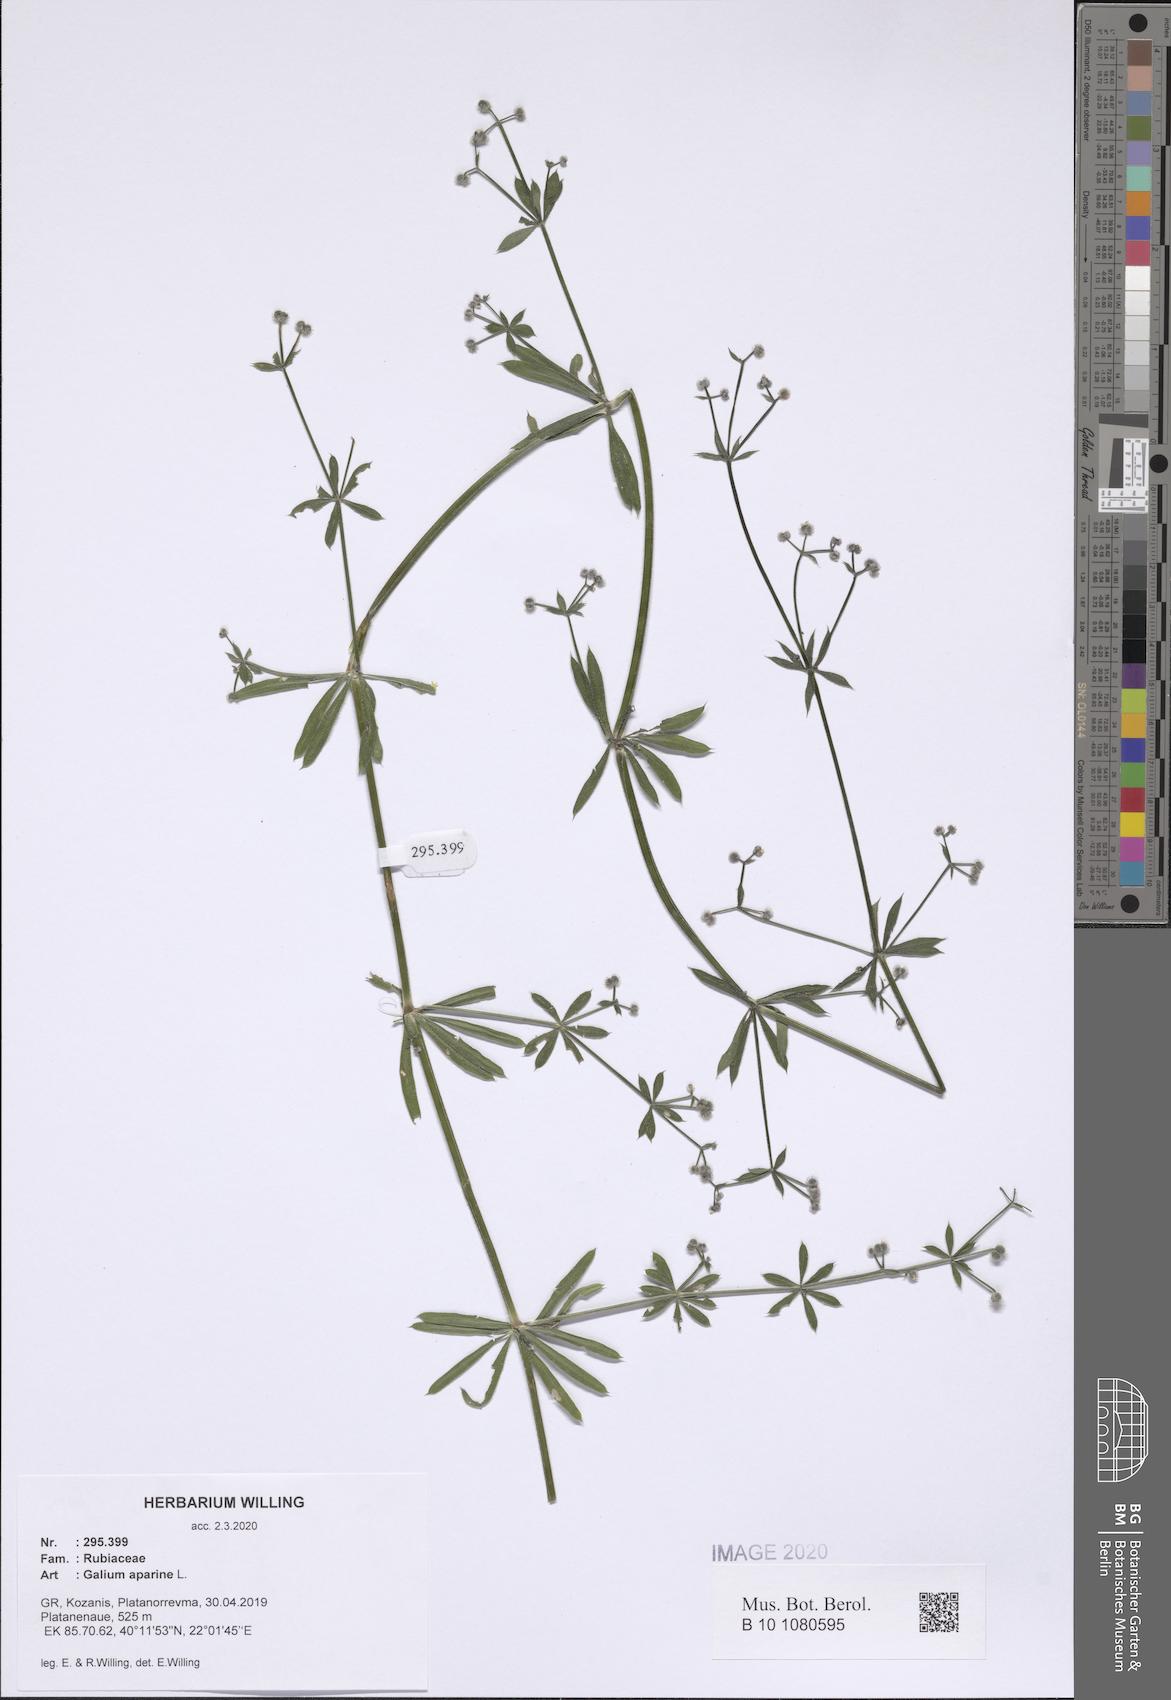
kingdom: Plantae
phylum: Tracheophyta
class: Magnoliopsida
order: Gentianales
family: Rubiaceae
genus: Galium
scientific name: Galium aparine
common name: Cleavers
